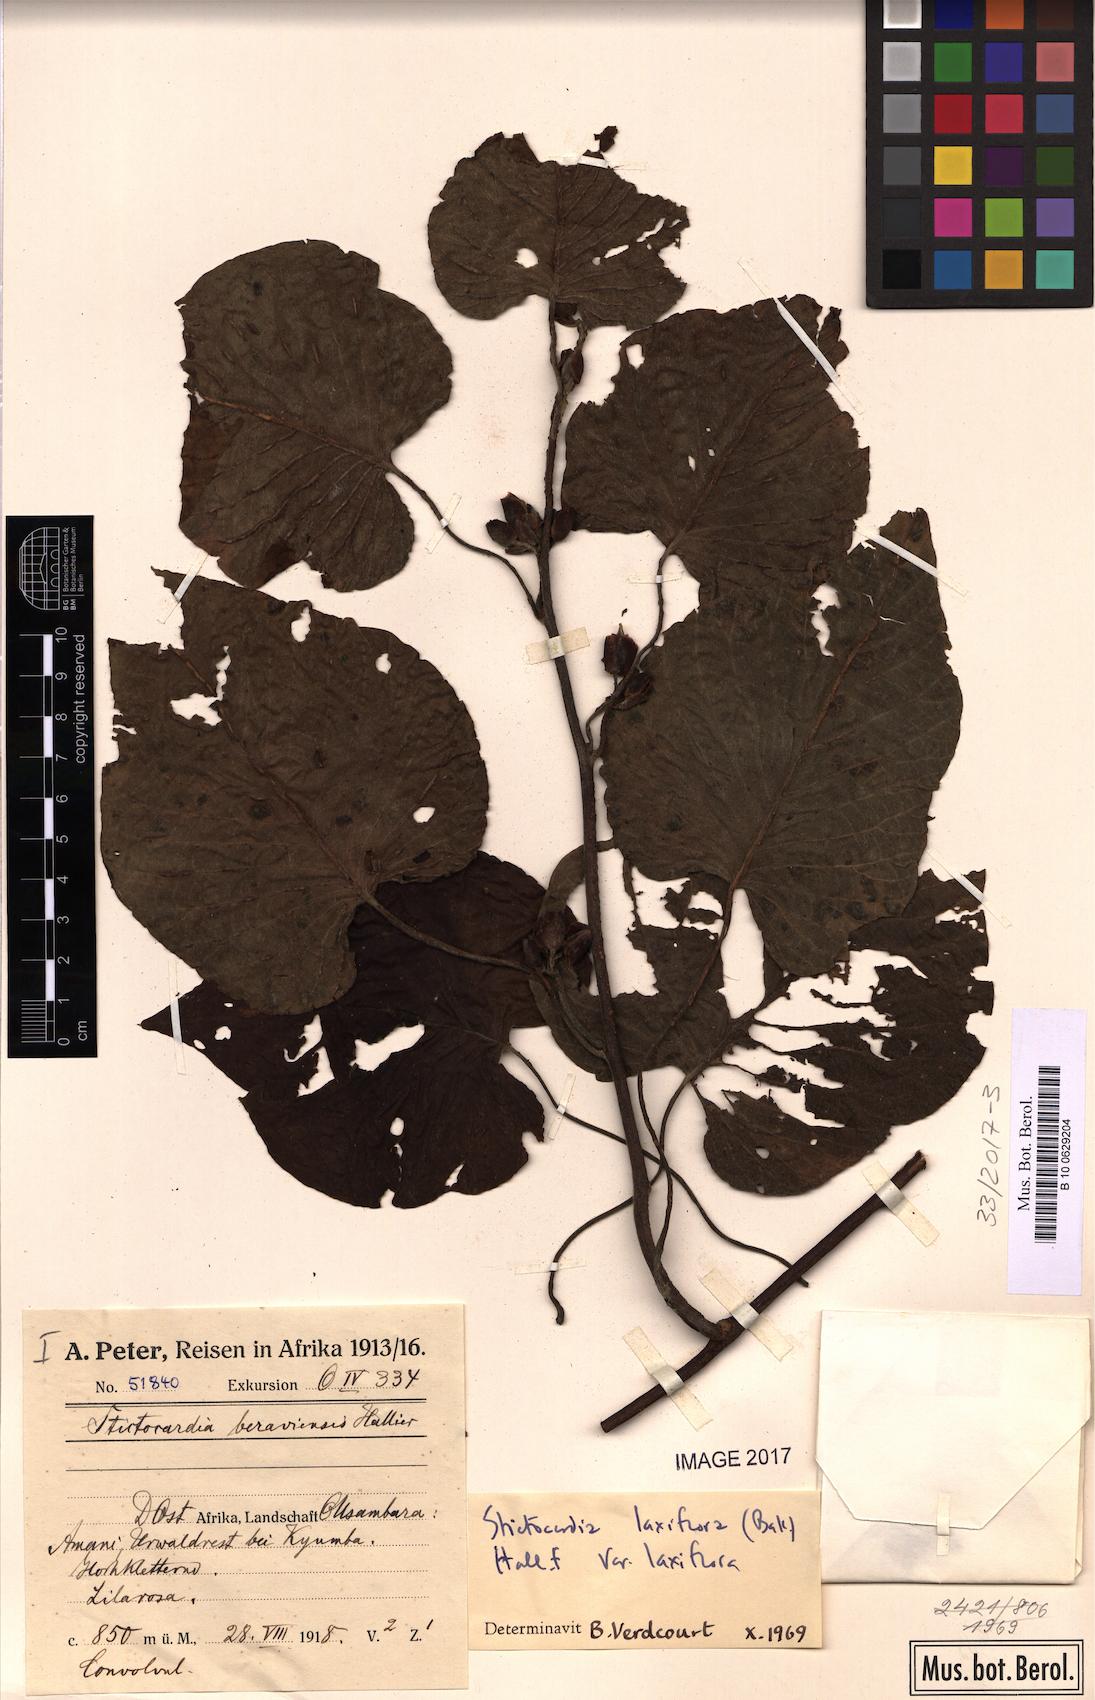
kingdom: Plantae
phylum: Tracheophyta
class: Magnoliopsida
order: Solanales
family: Convolvulaceae
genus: Stictocardia
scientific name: Stictocardia laxiflora
